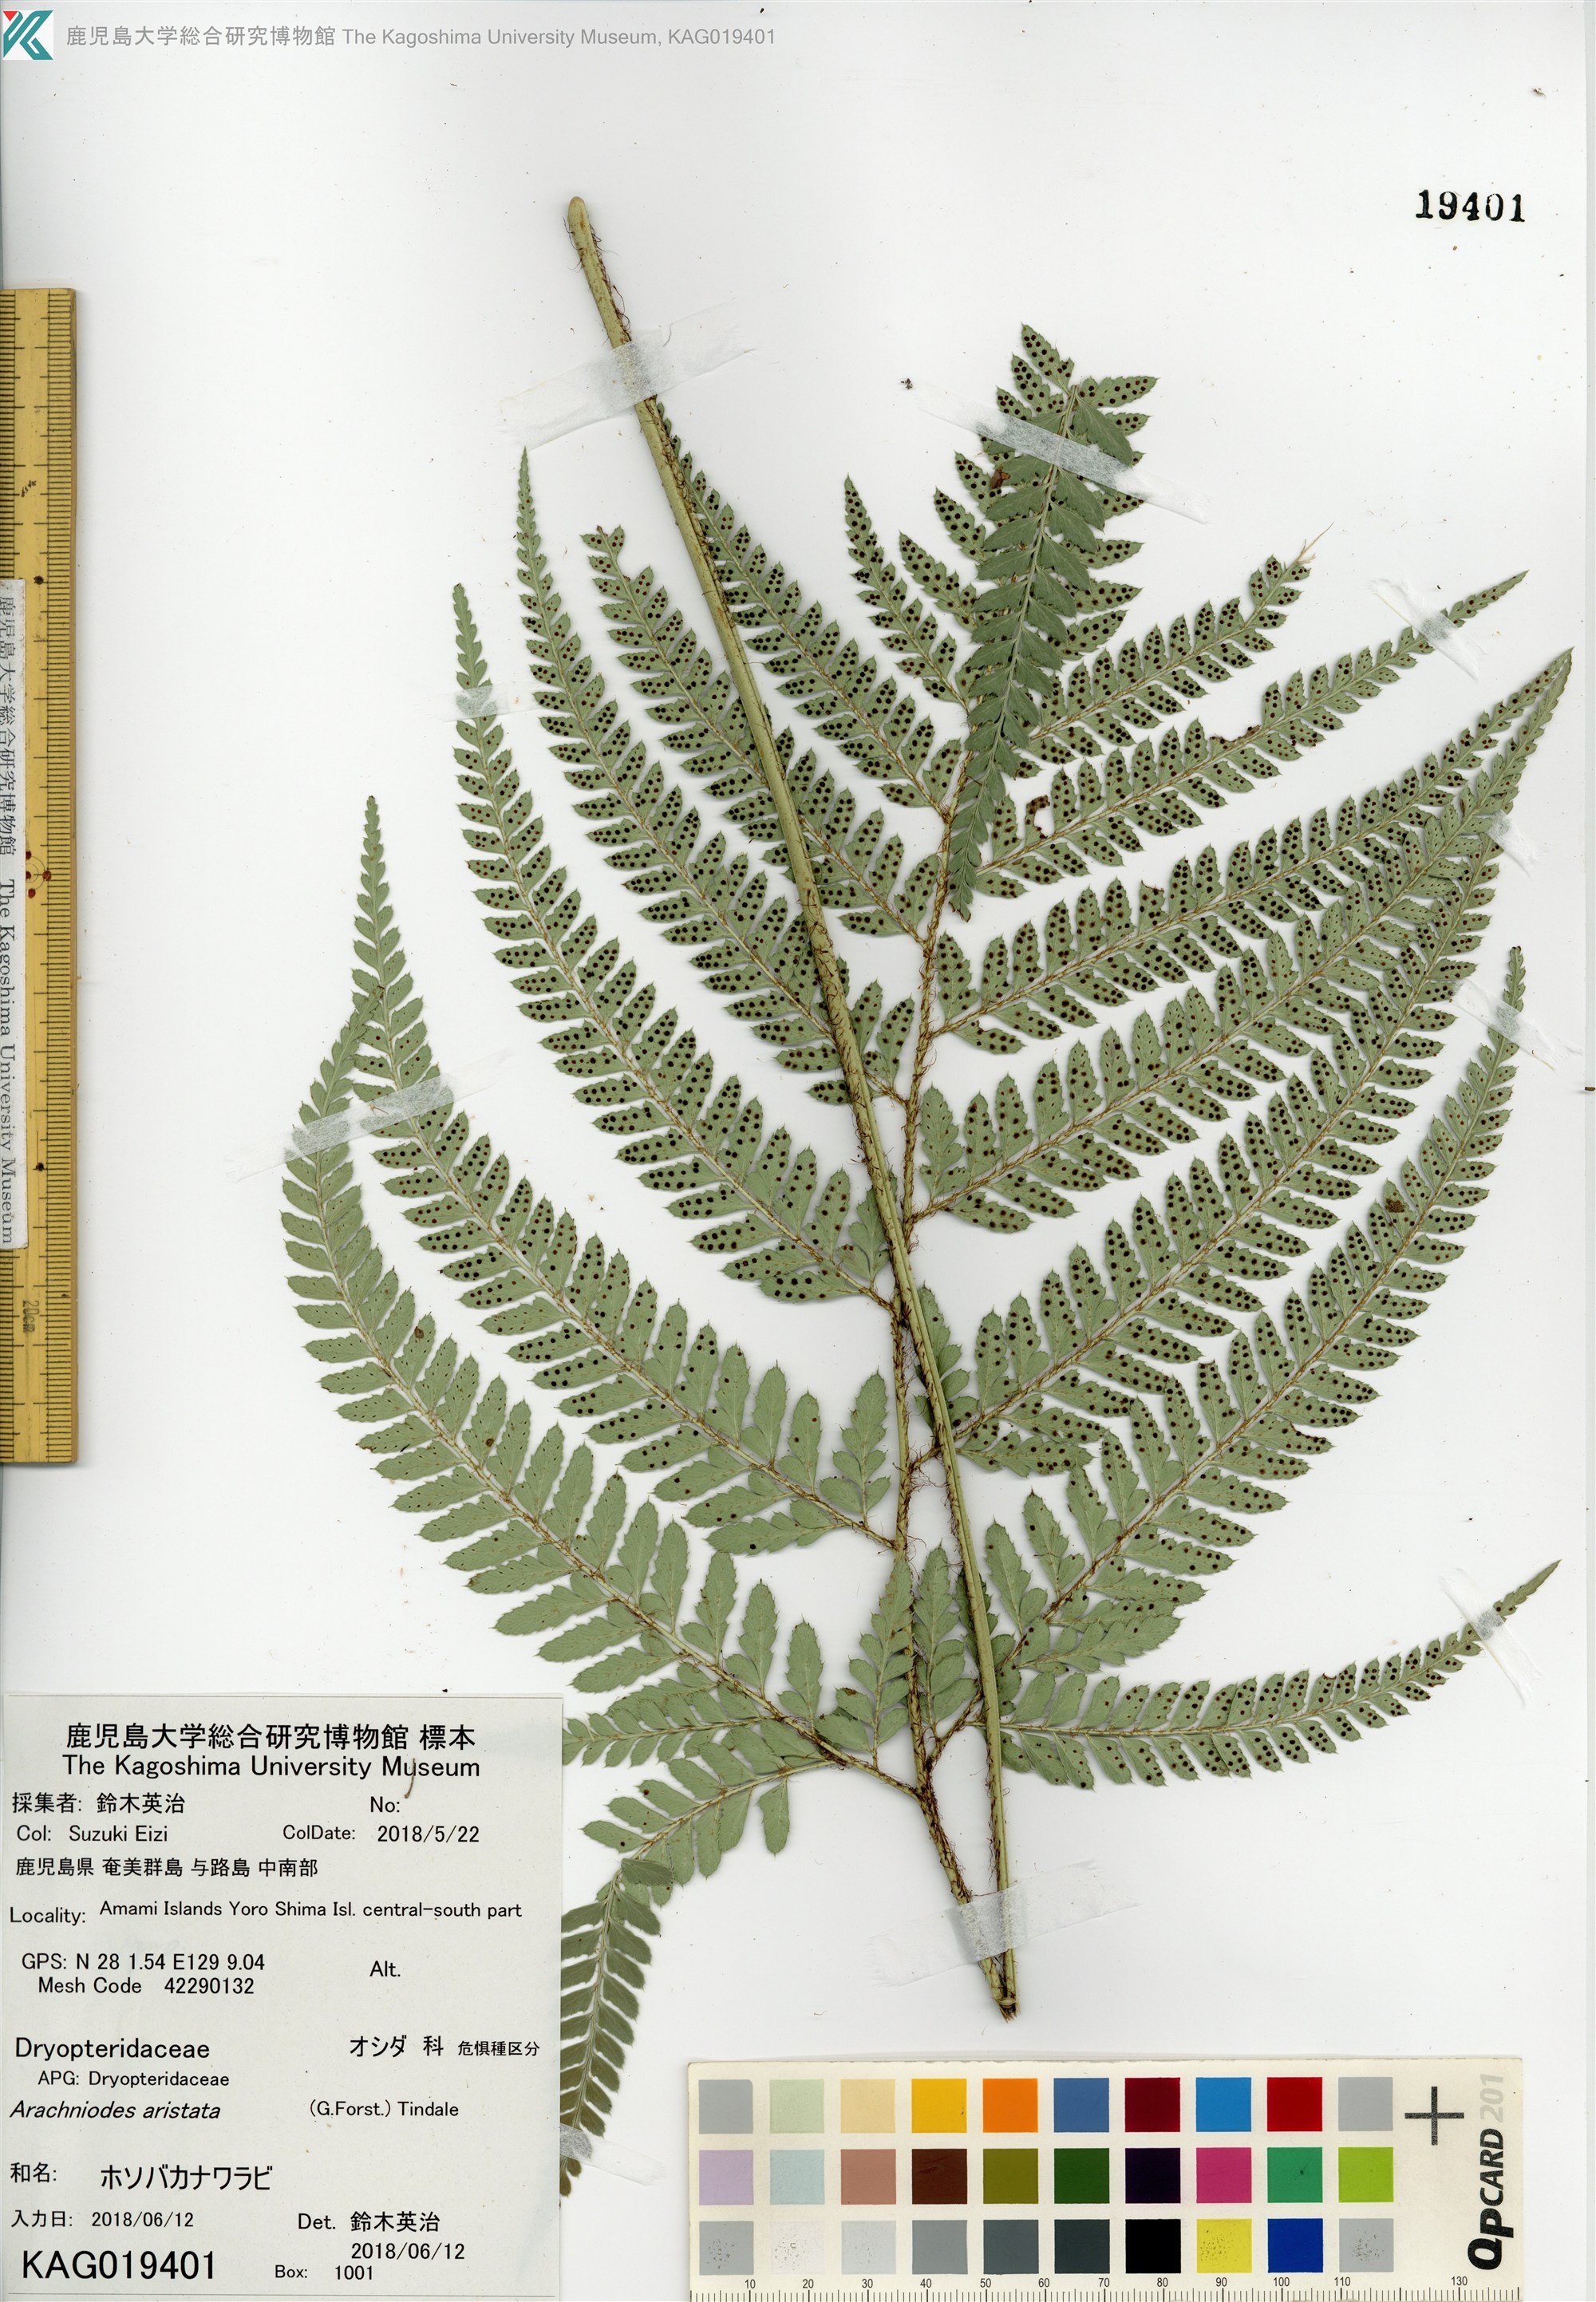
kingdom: Plantae
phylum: Tracheophyta
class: Polypodiopsida
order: Polypodiales
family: Dryopteridaceae
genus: Arachniodes
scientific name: Arachniodes carvifolia
